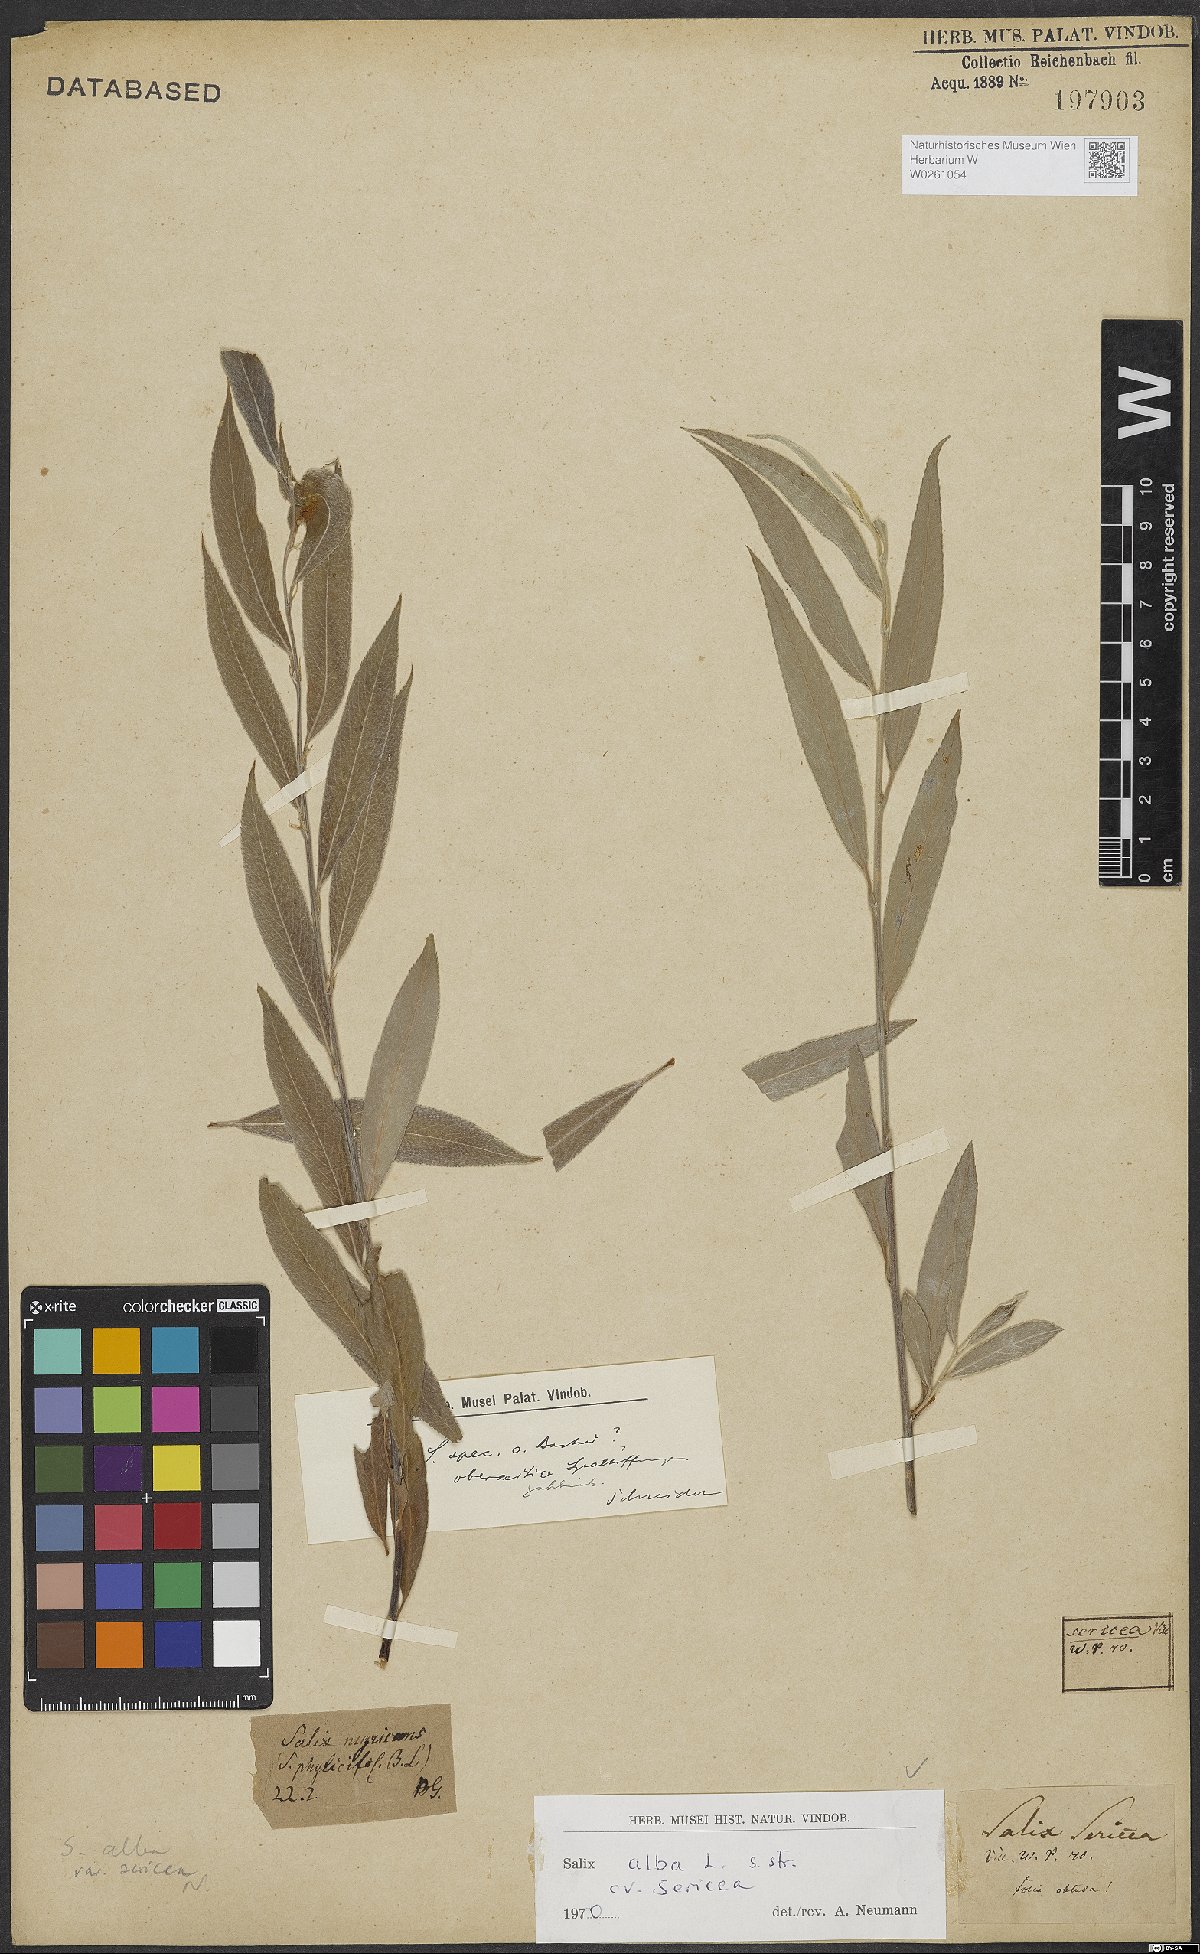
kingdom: Plantae
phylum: Tracheophyta
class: Magnoliopsida
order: Malpighiales
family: Salicaceae
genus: Salix
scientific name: Salix alba
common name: White willow
